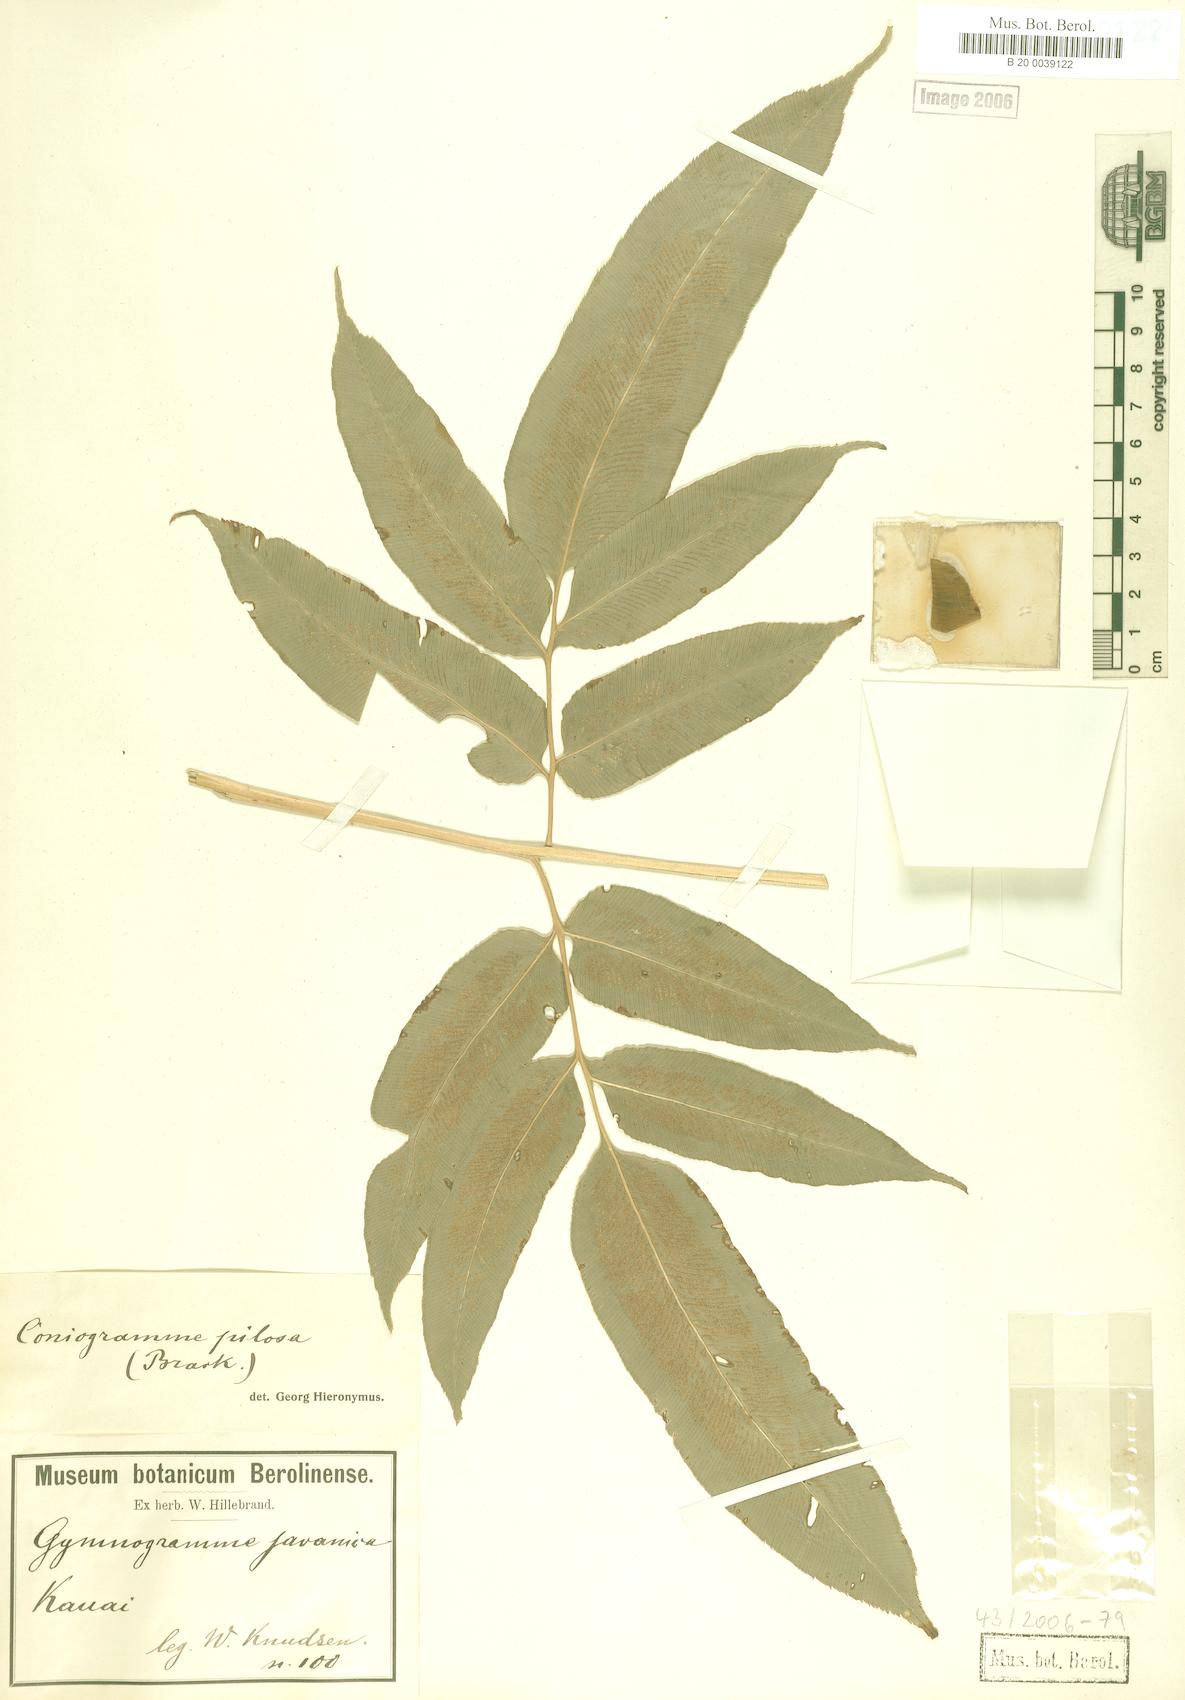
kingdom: Plantae
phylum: Tracheophyta
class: Polypodiopsida
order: Polypodiales
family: Pteridaceae
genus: Coniogramme
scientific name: Coniogramme pilosa
